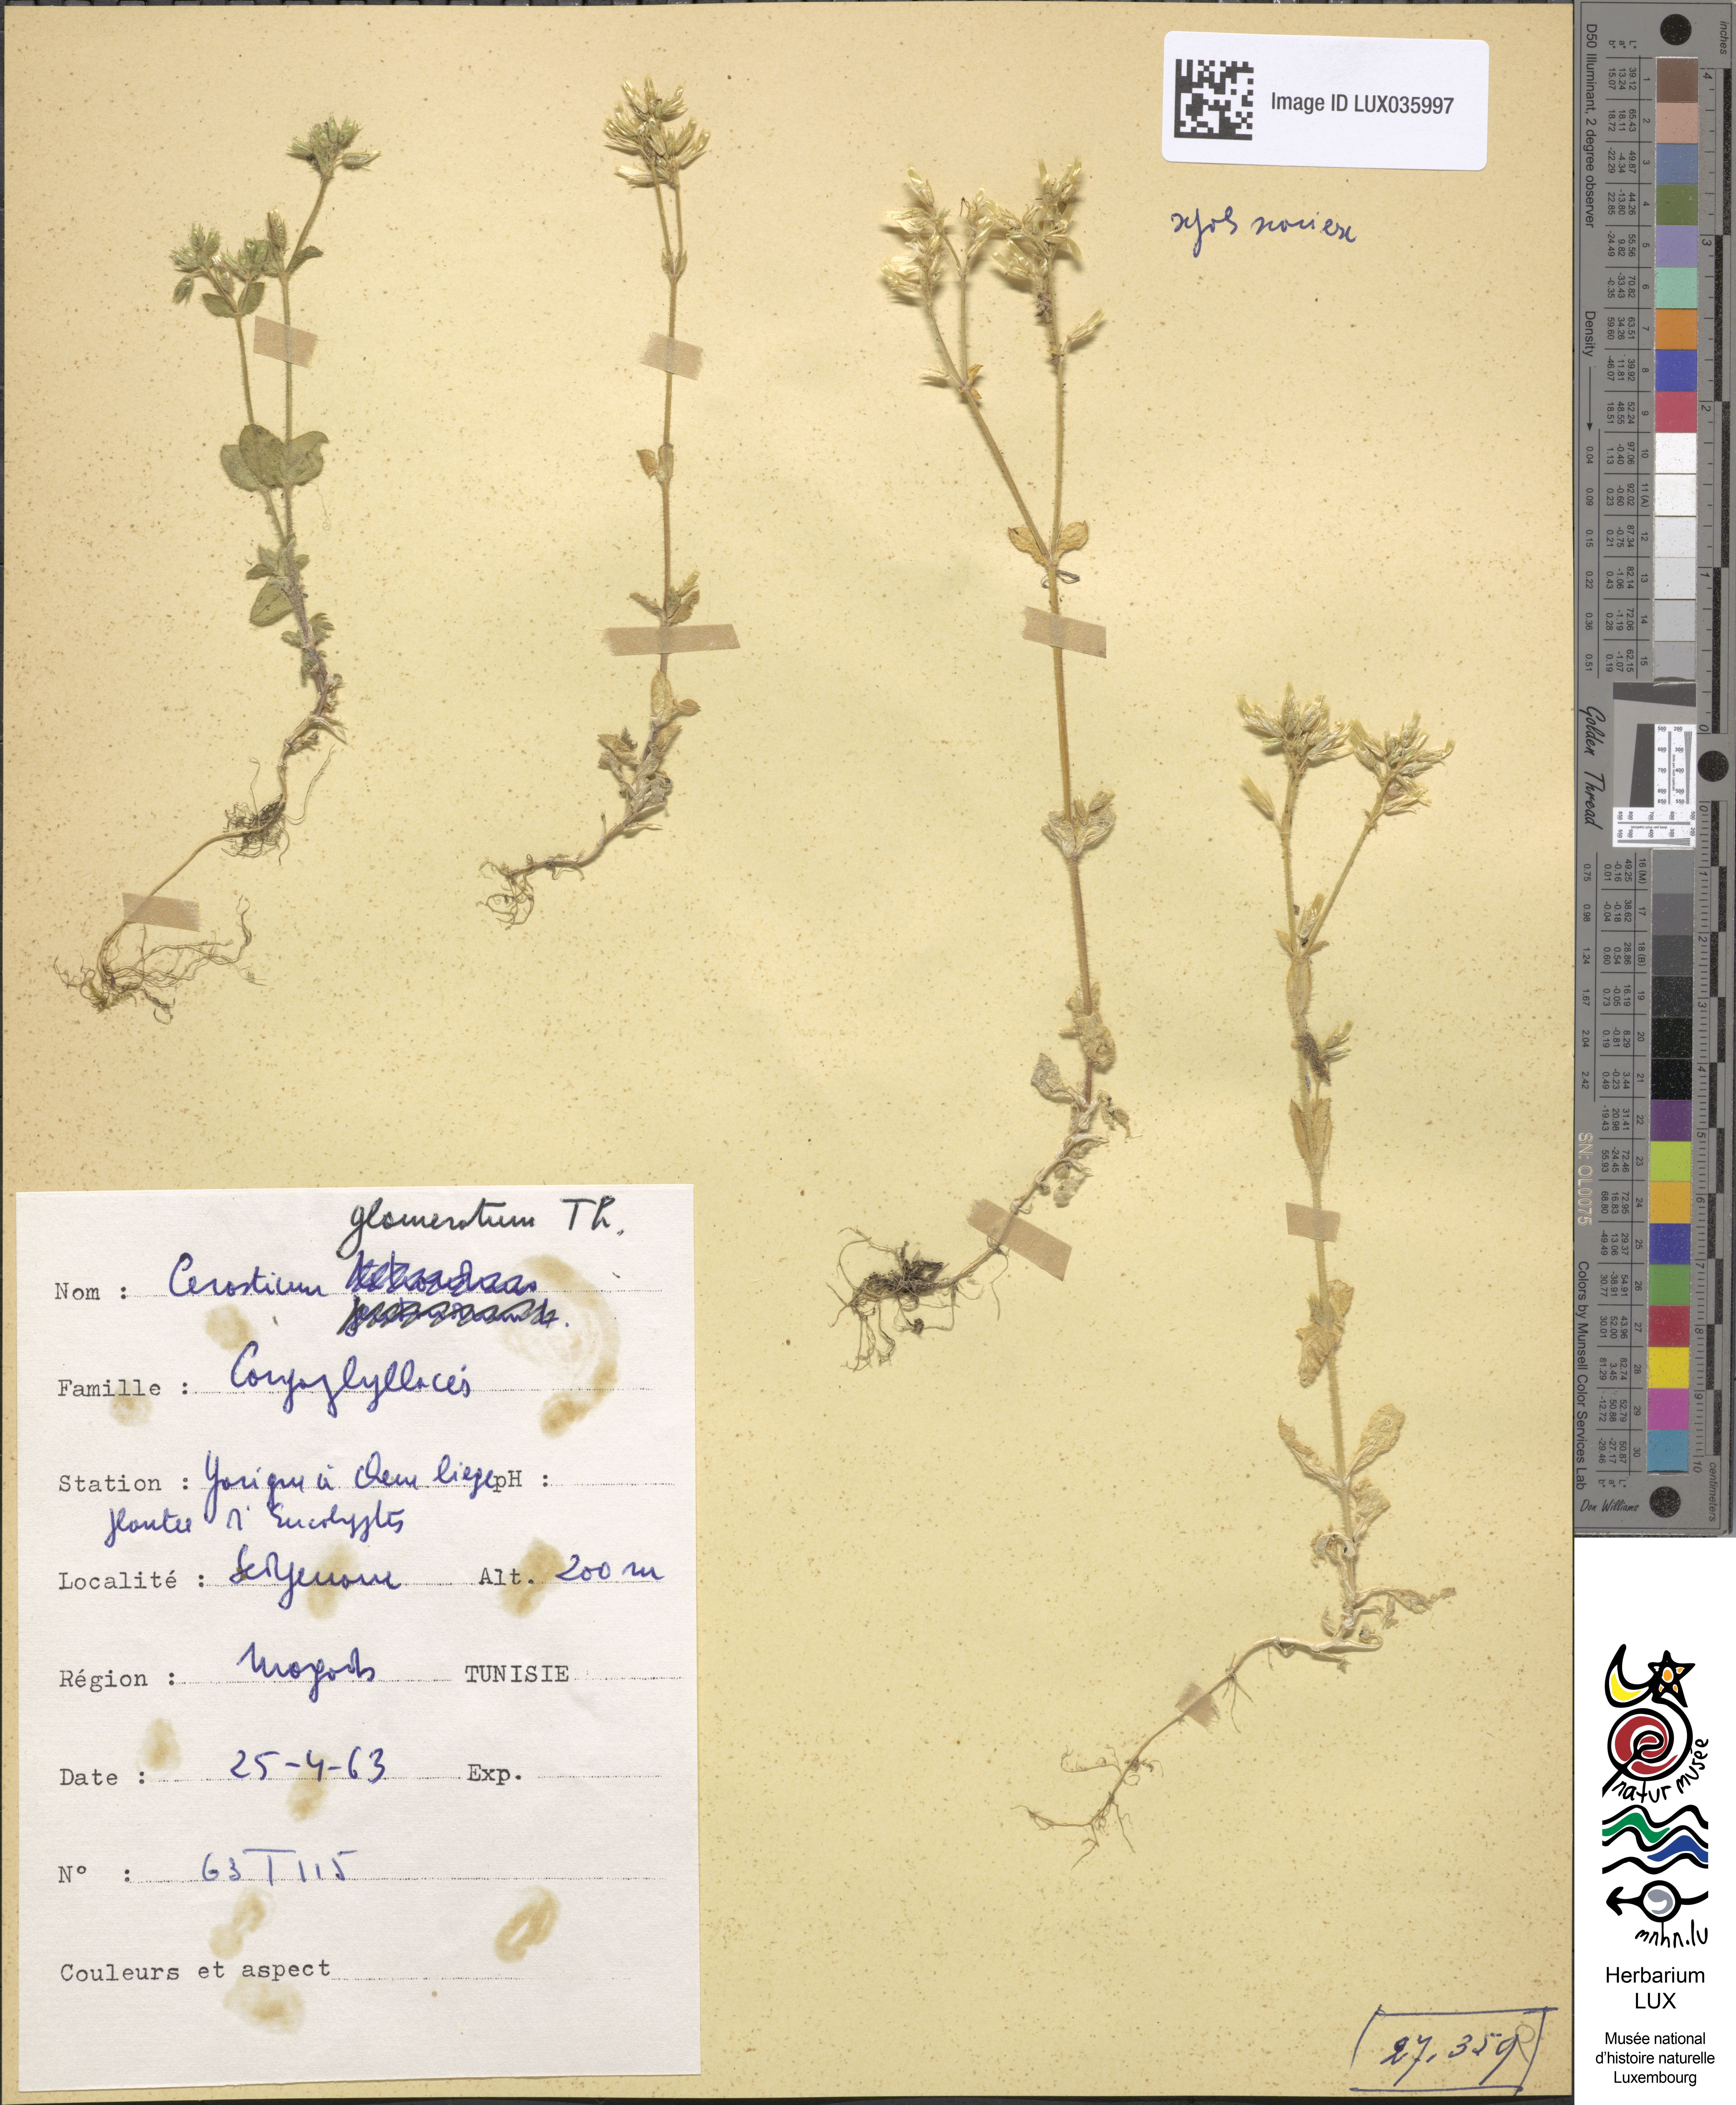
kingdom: Plantae
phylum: Tracheophyta
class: Magnoliopsida
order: Caryophyllales
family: Caryophyllaceae
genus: Cerastium
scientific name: Cerastium glomeratum
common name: Sticky chickweed
